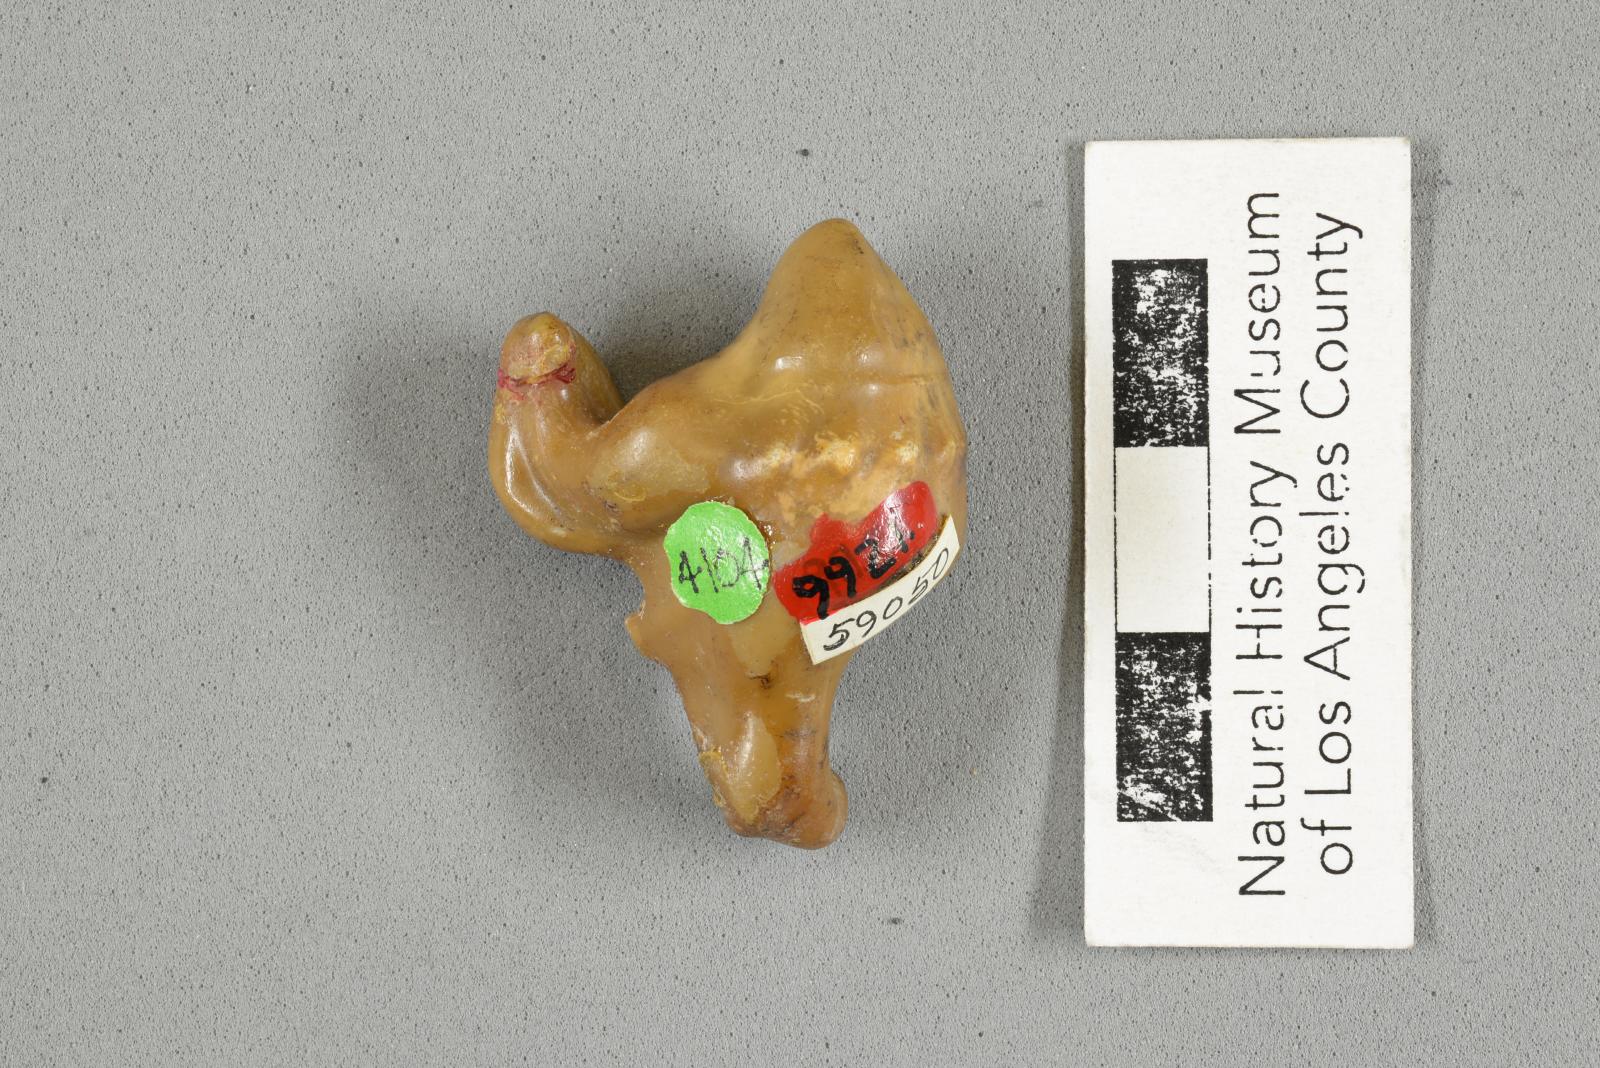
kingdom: Animalia
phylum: Mollusca
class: Gastropoda
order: Littorinimorpha
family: Aporrhaidae
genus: Pyktes
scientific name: Pyktes aspris
